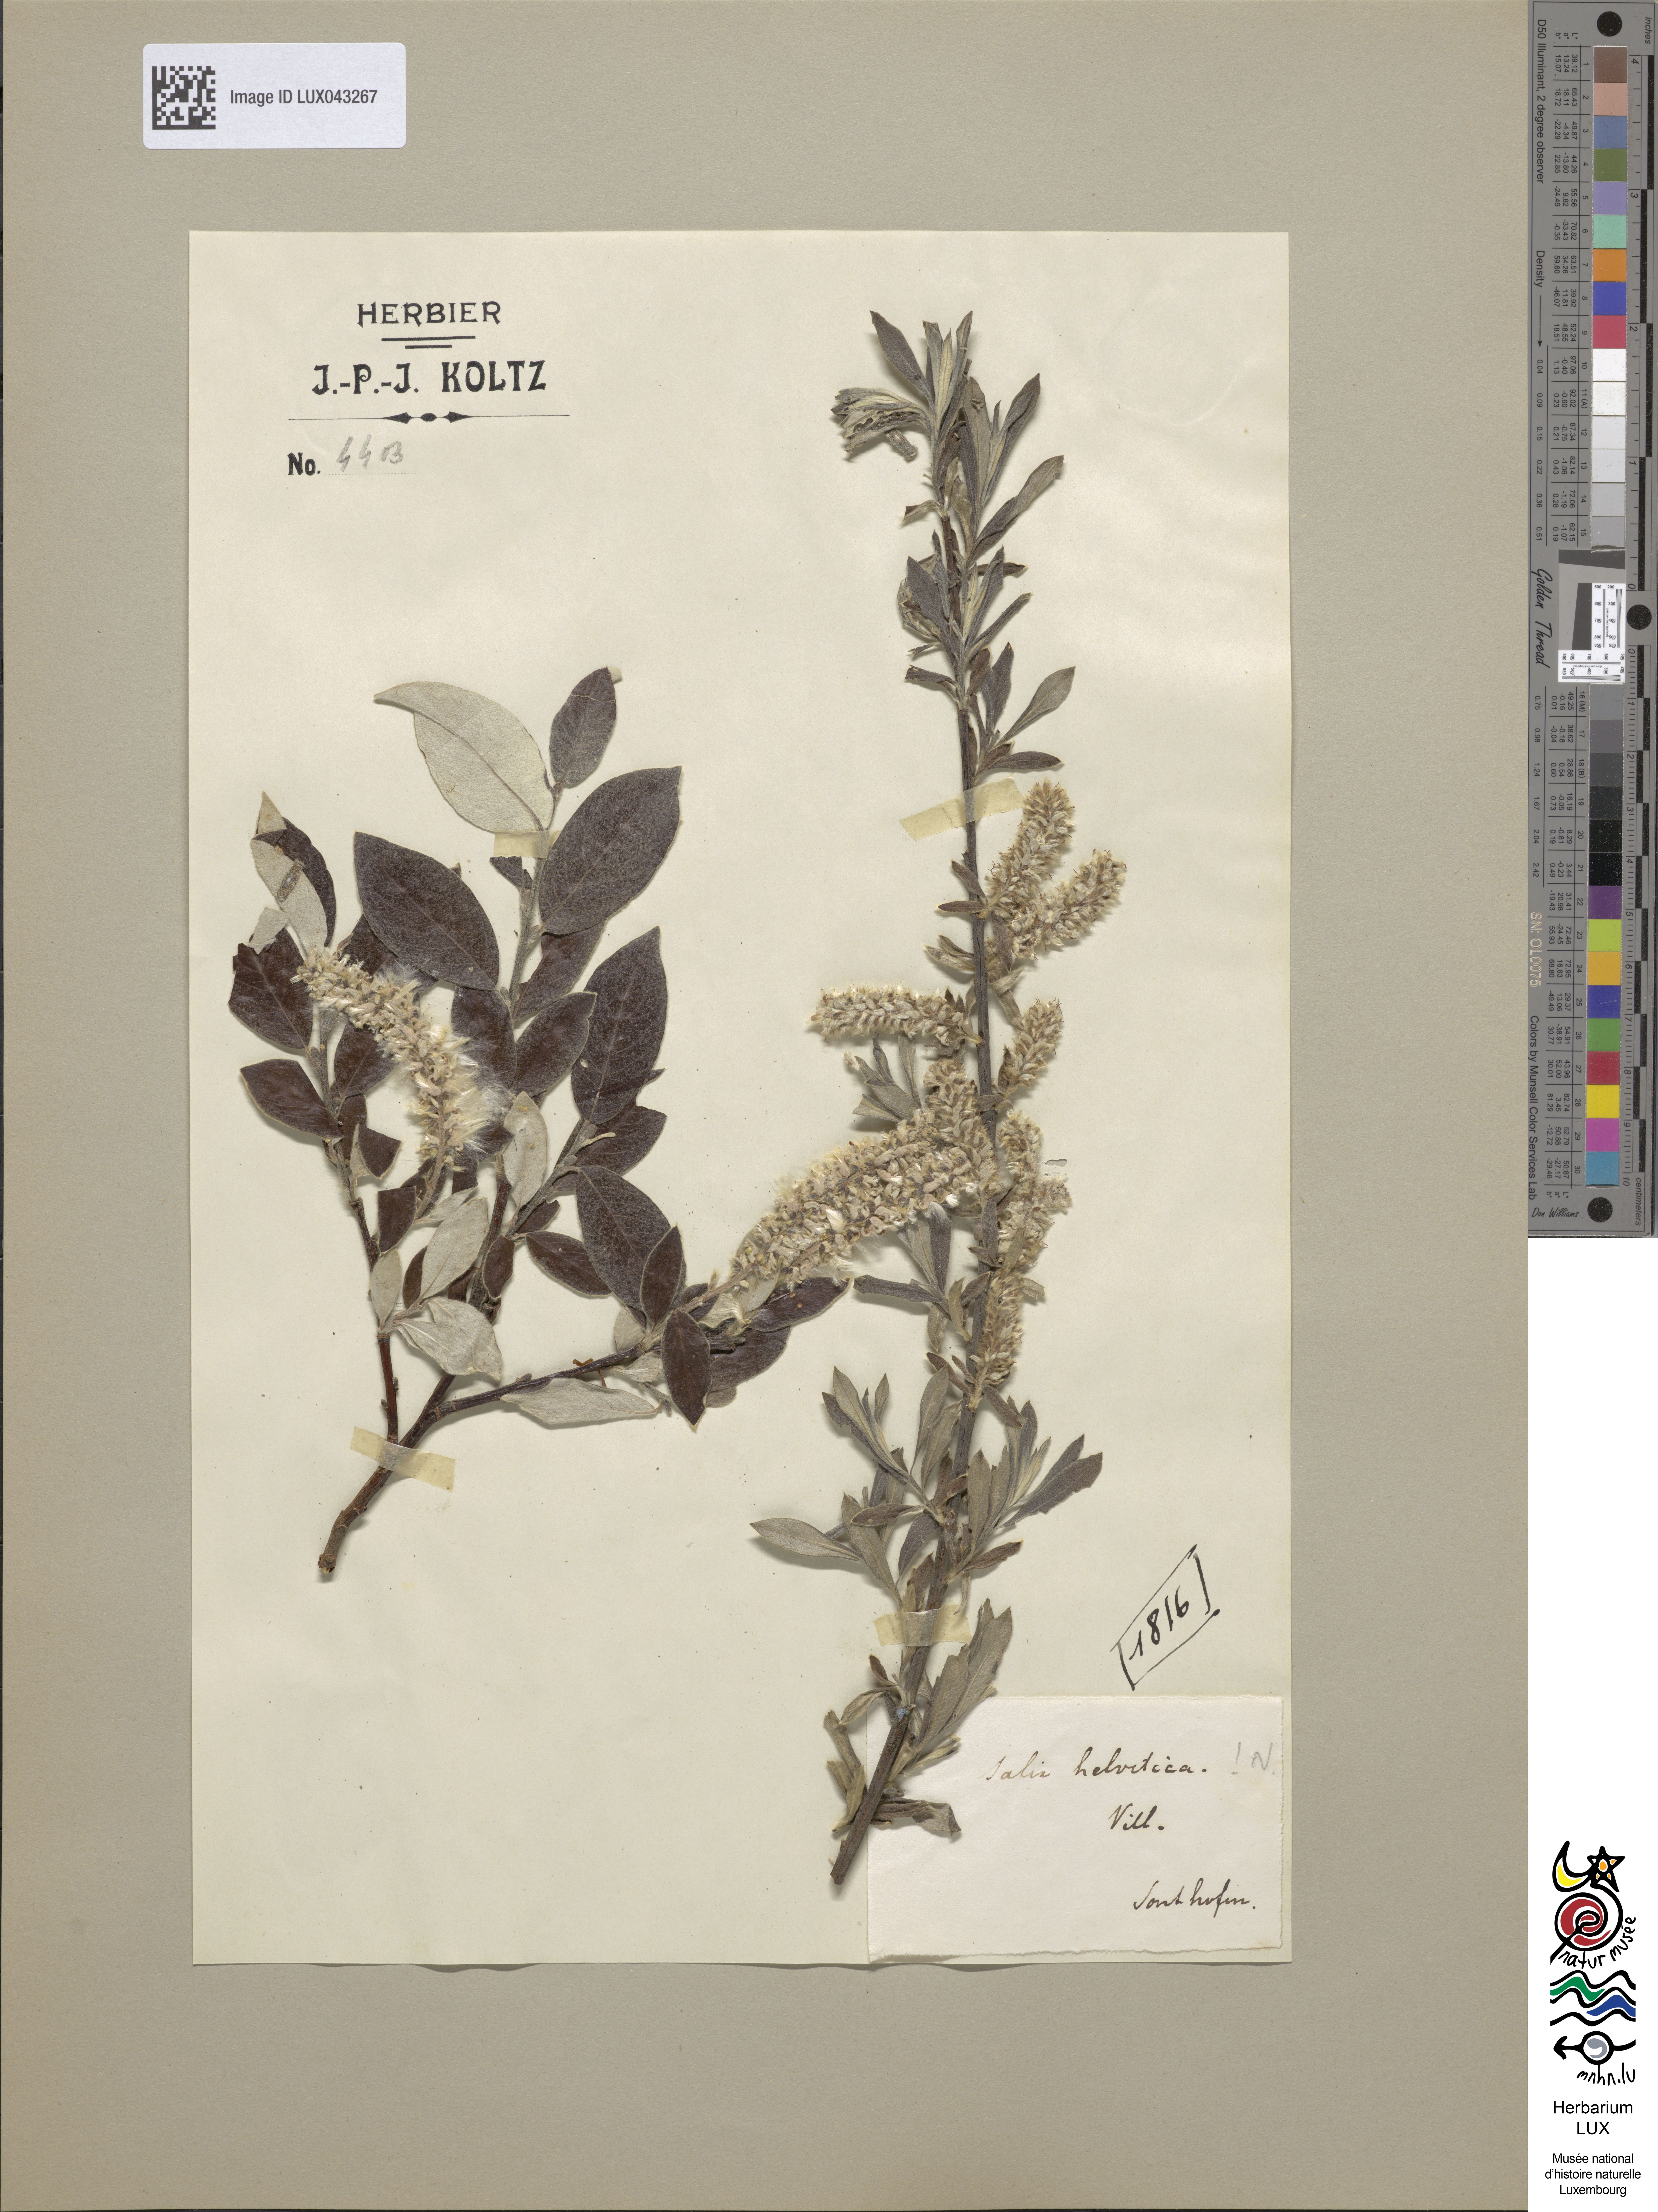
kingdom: Plantae
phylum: Tracheophyta
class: Magnoliopsida
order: Malpighiales
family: Salicaceae
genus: Salix
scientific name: Salix helvetica
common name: Swiss willow
